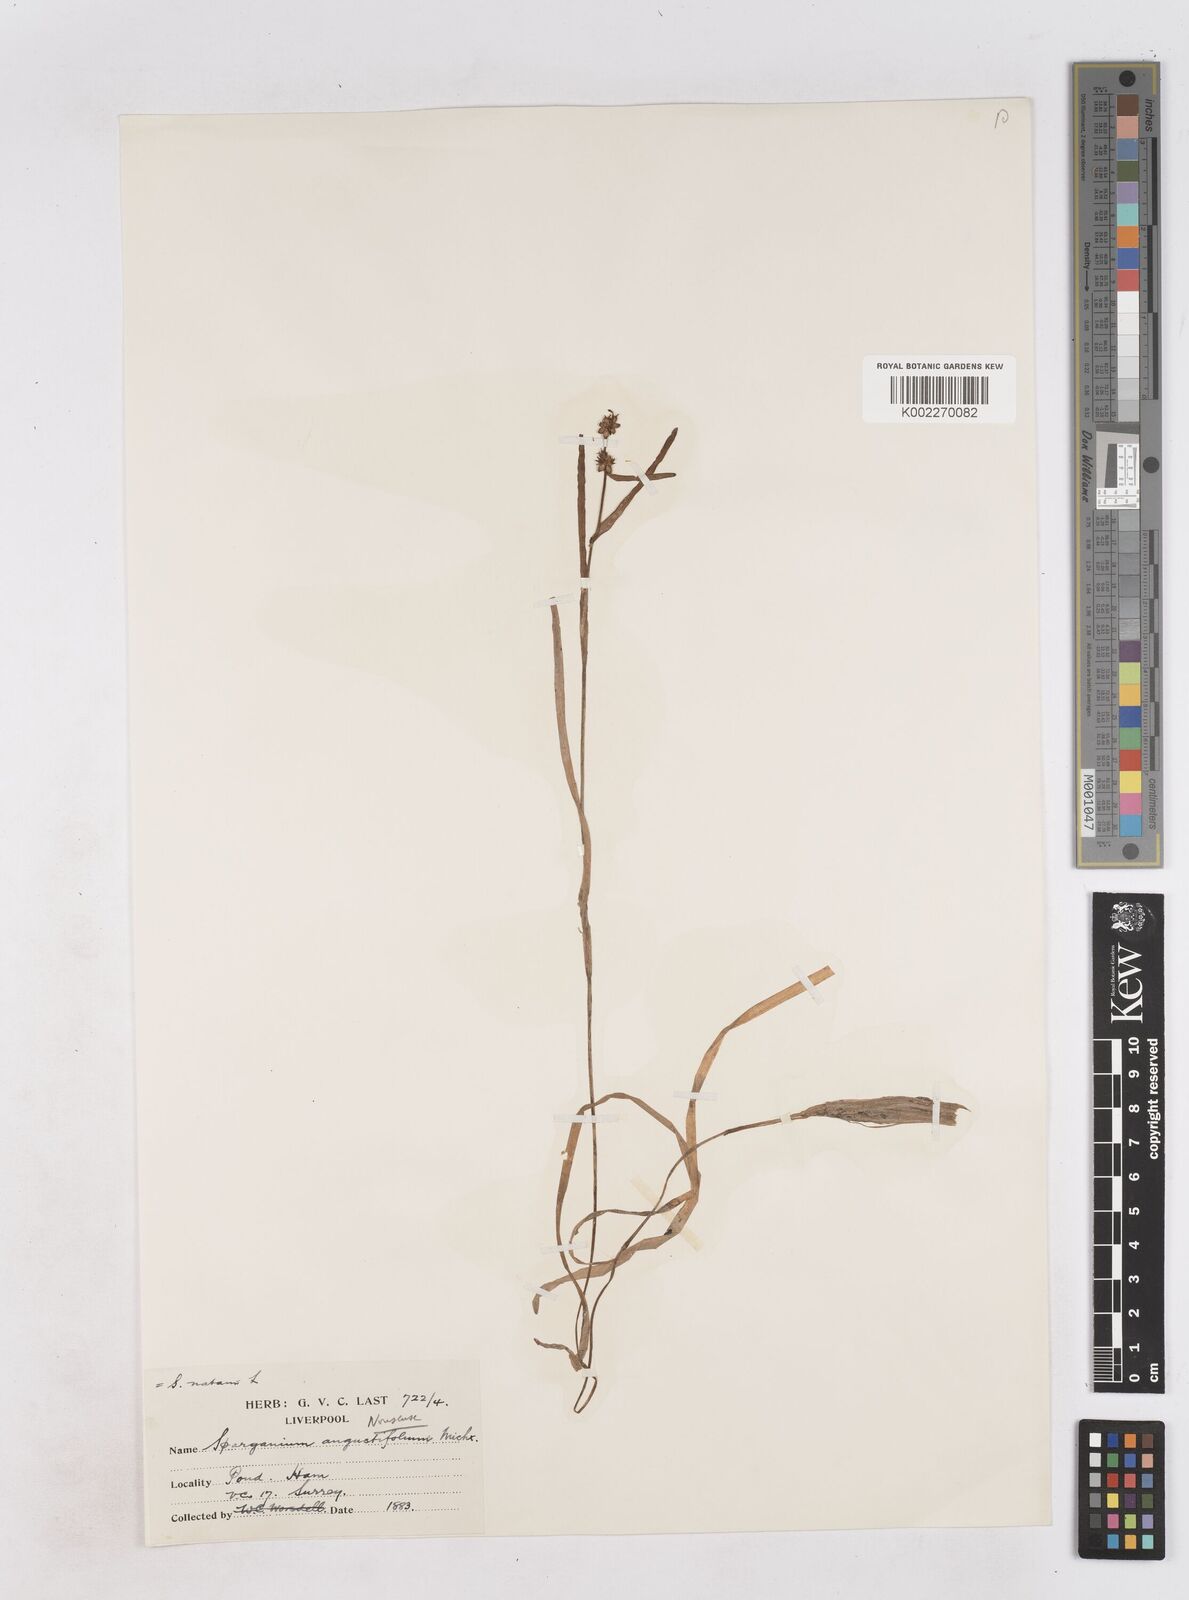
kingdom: Plantae
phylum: Tracheophyta
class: Liliopsida
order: Poales
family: Typhaceae
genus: Sparganium
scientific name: Sparganium natans
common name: Least bur-reed
